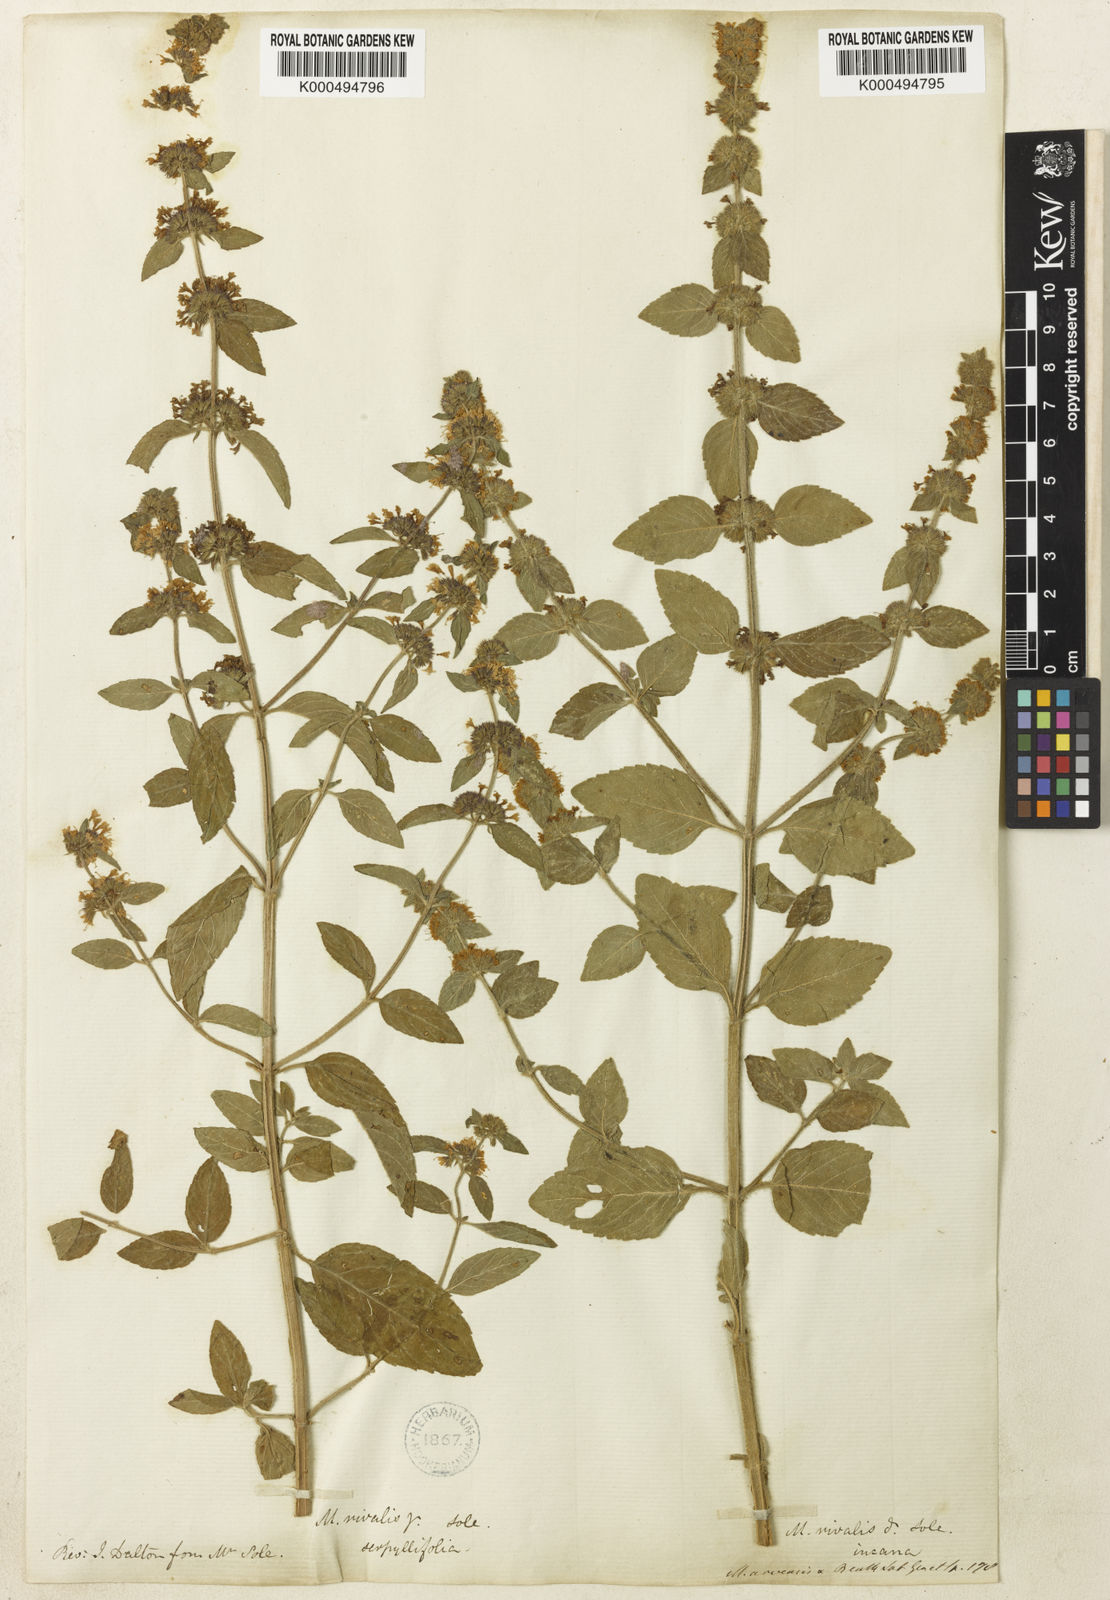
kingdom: Plantae
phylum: Tracheophyta
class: Magnoliopsida
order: Lamiales
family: Lamiaceae
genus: Mentha
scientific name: Mentha verticillata
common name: Mint
